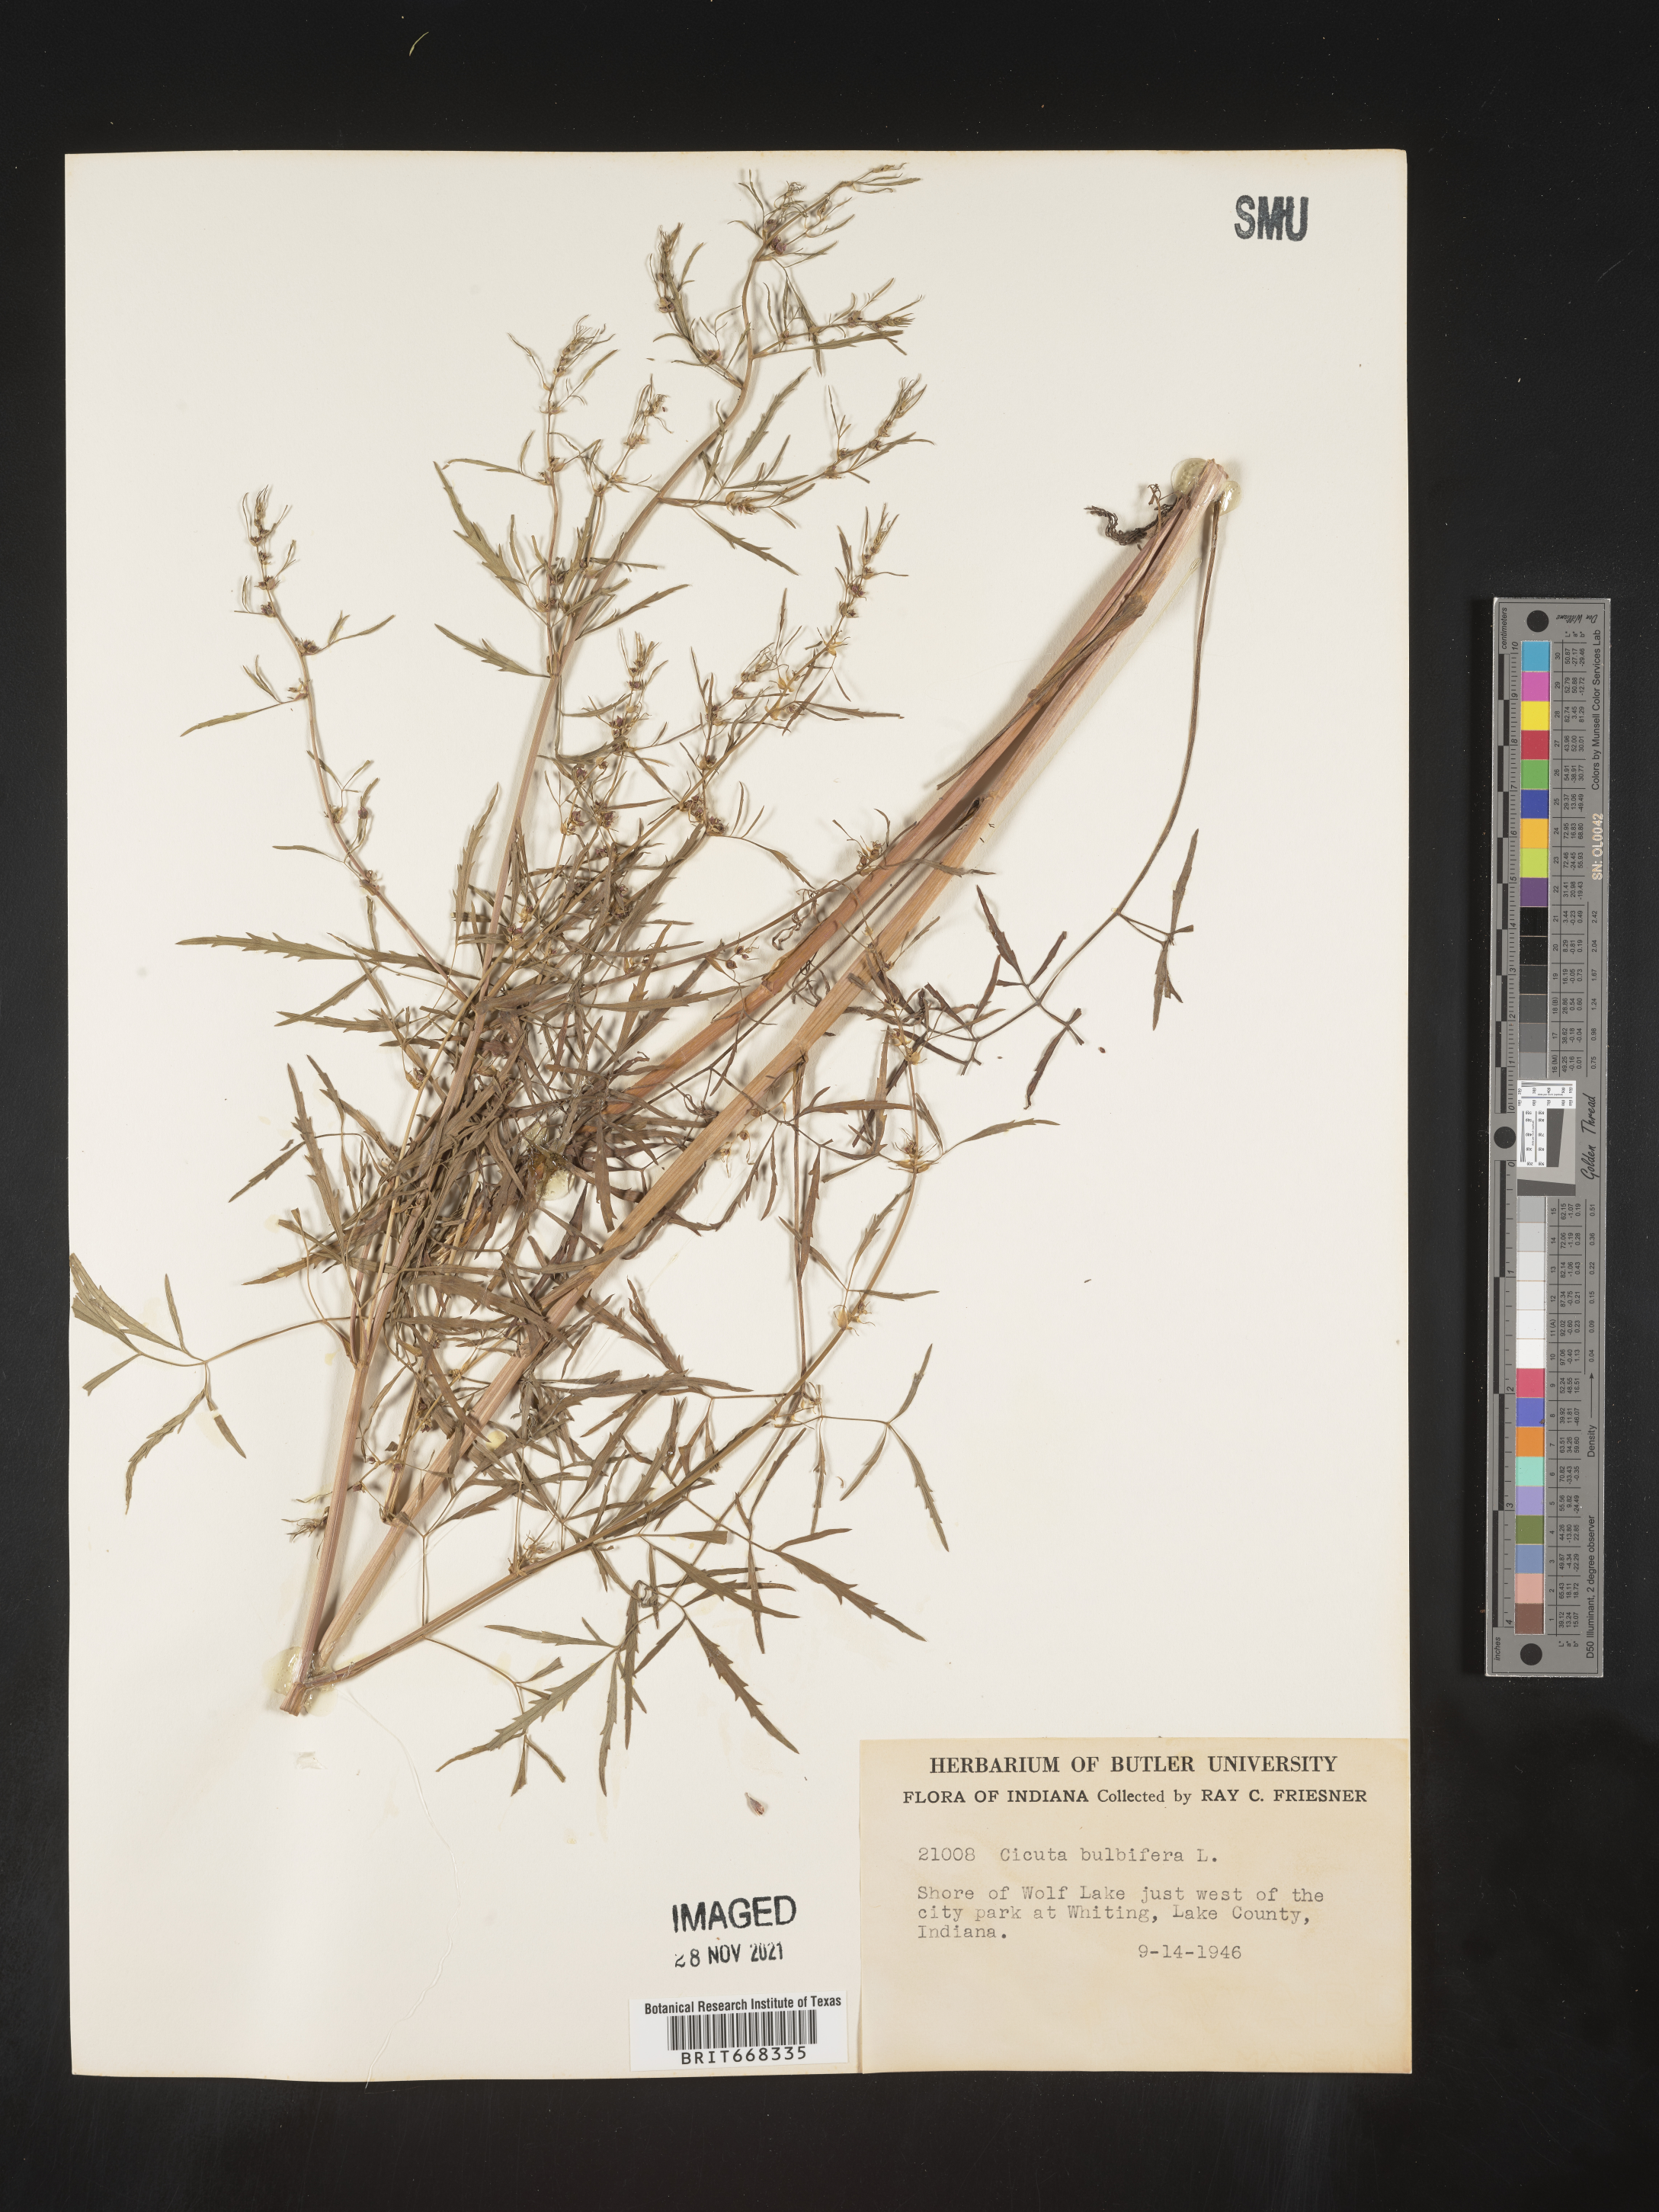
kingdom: Plantae
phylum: Tracheophyta
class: Magnoliopsida
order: Apiales
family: Apiaceae
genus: Cicuta
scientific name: Cicuta
